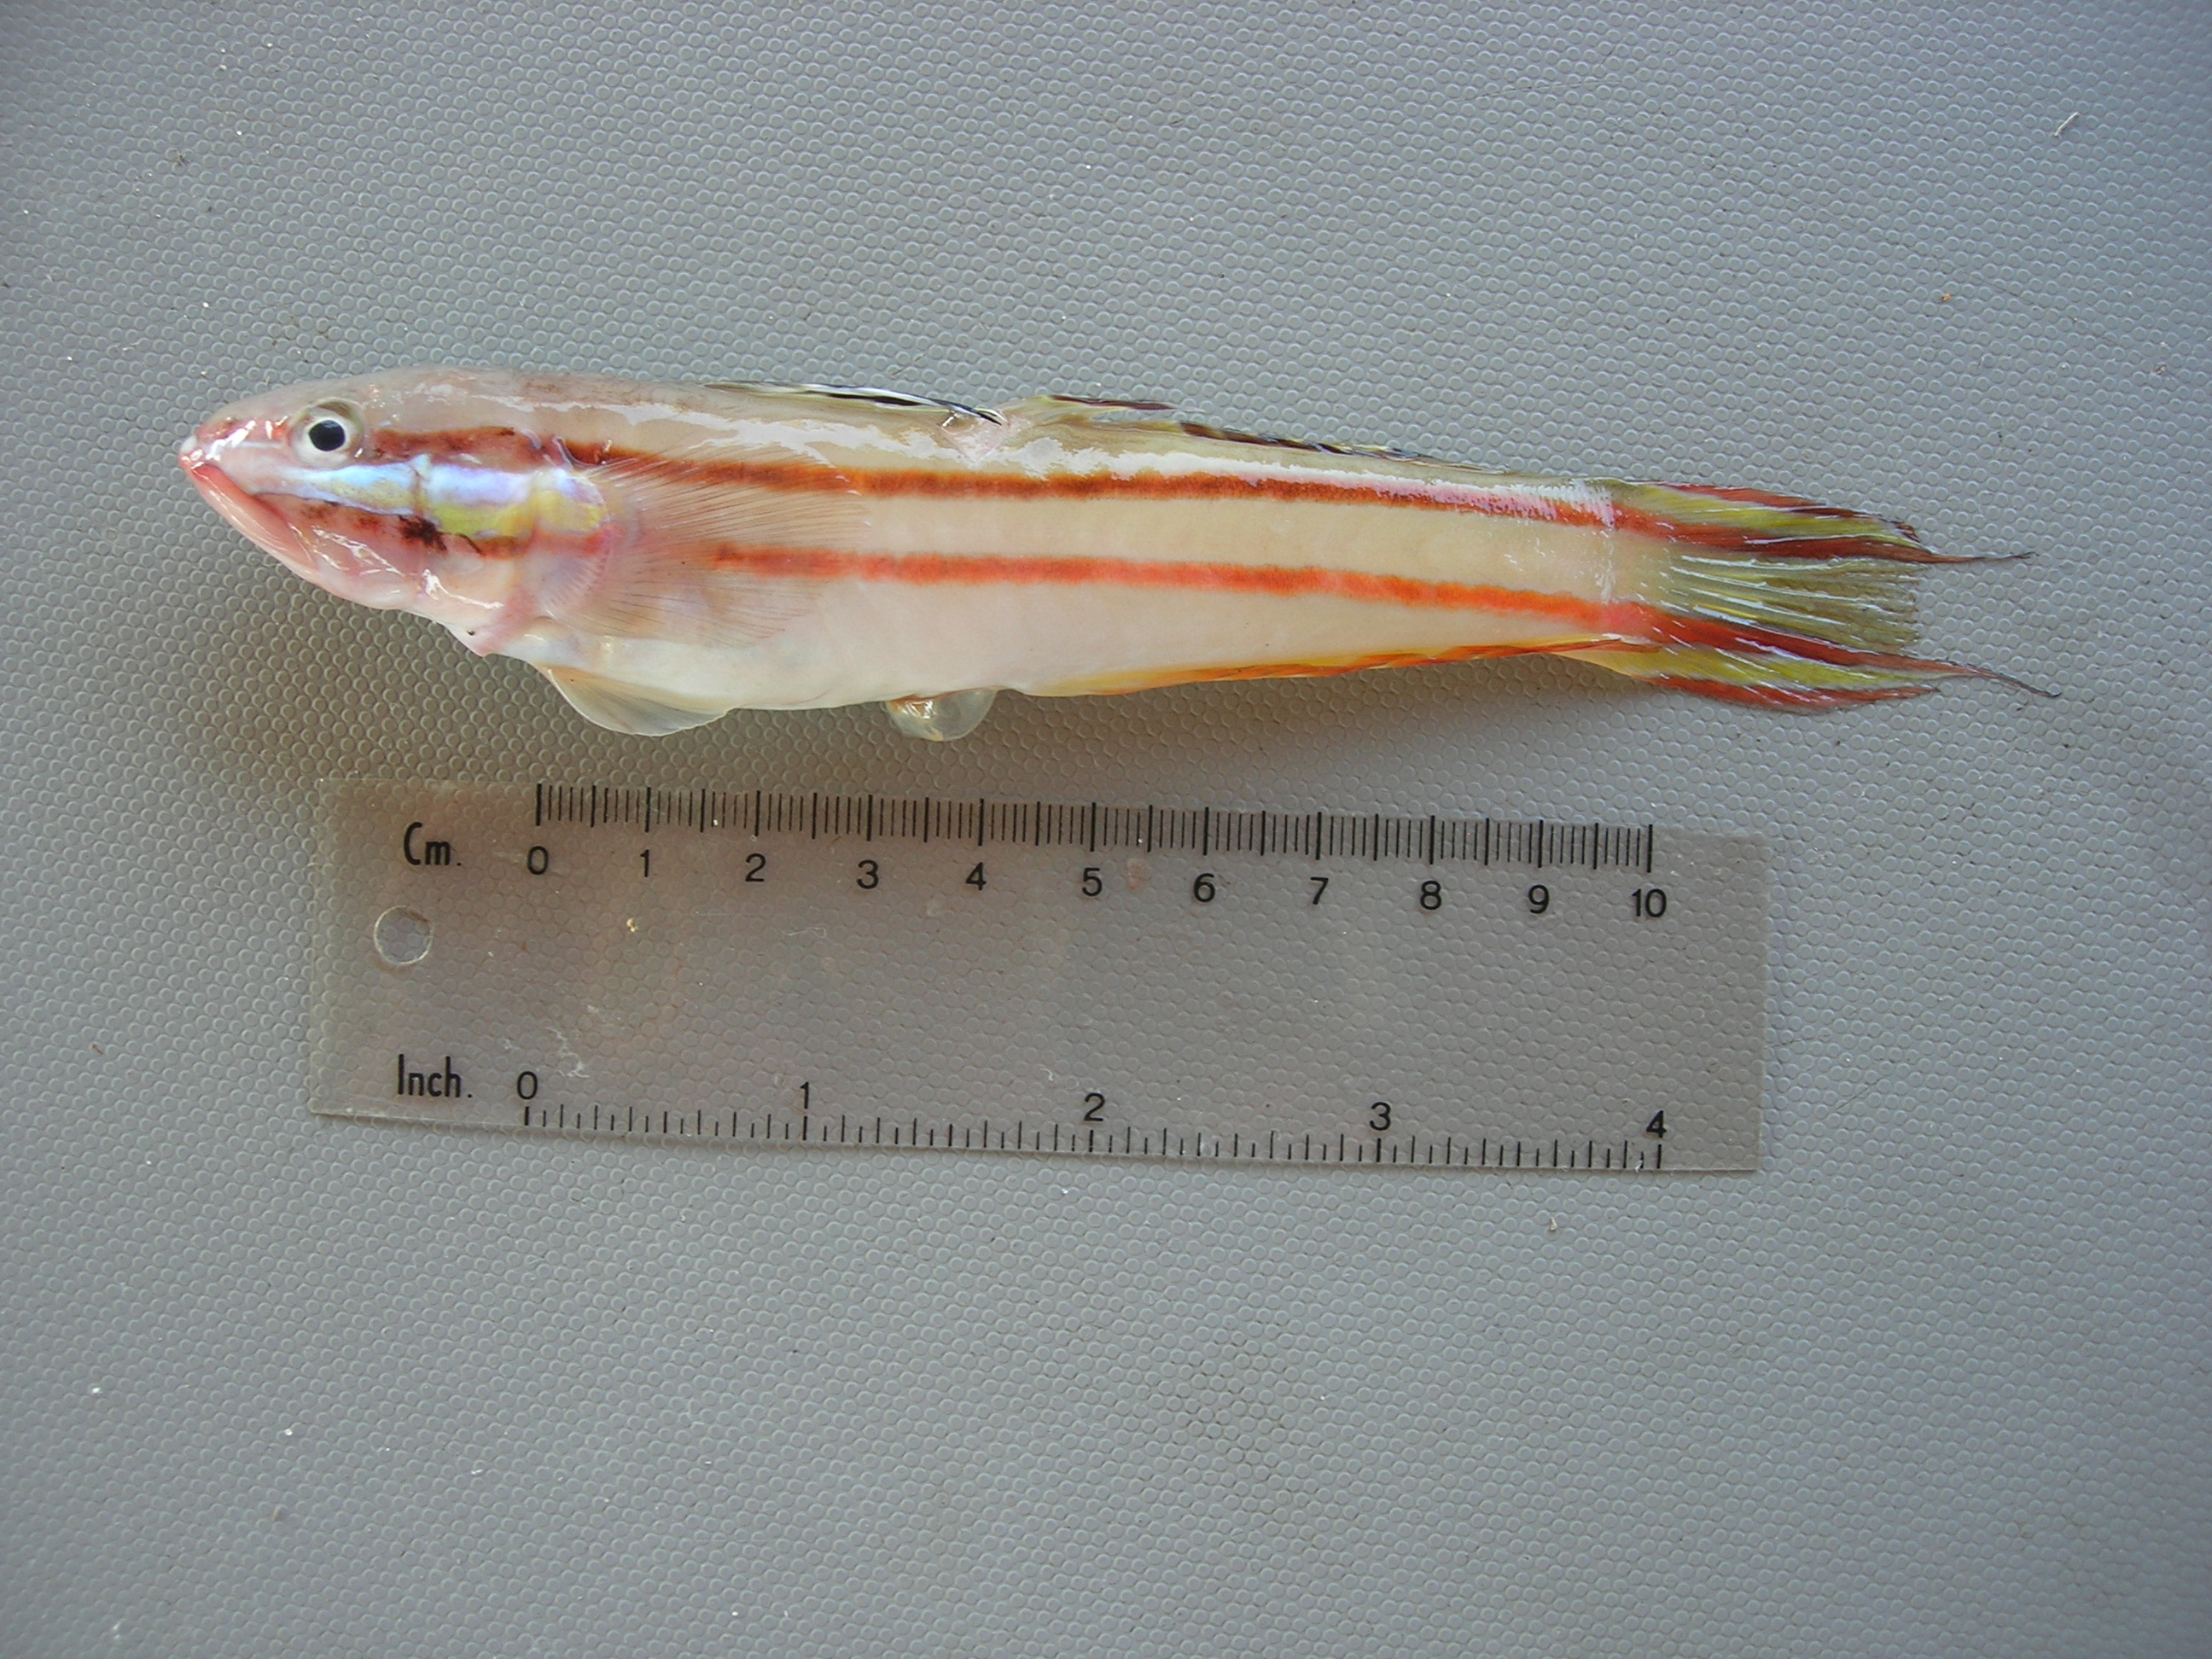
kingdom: Animalia
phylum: Chordata
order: Perciformes
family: Gobiidae
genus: Valenciennea
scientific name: Valenciennea helsdingenii
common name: Twostripe goby
